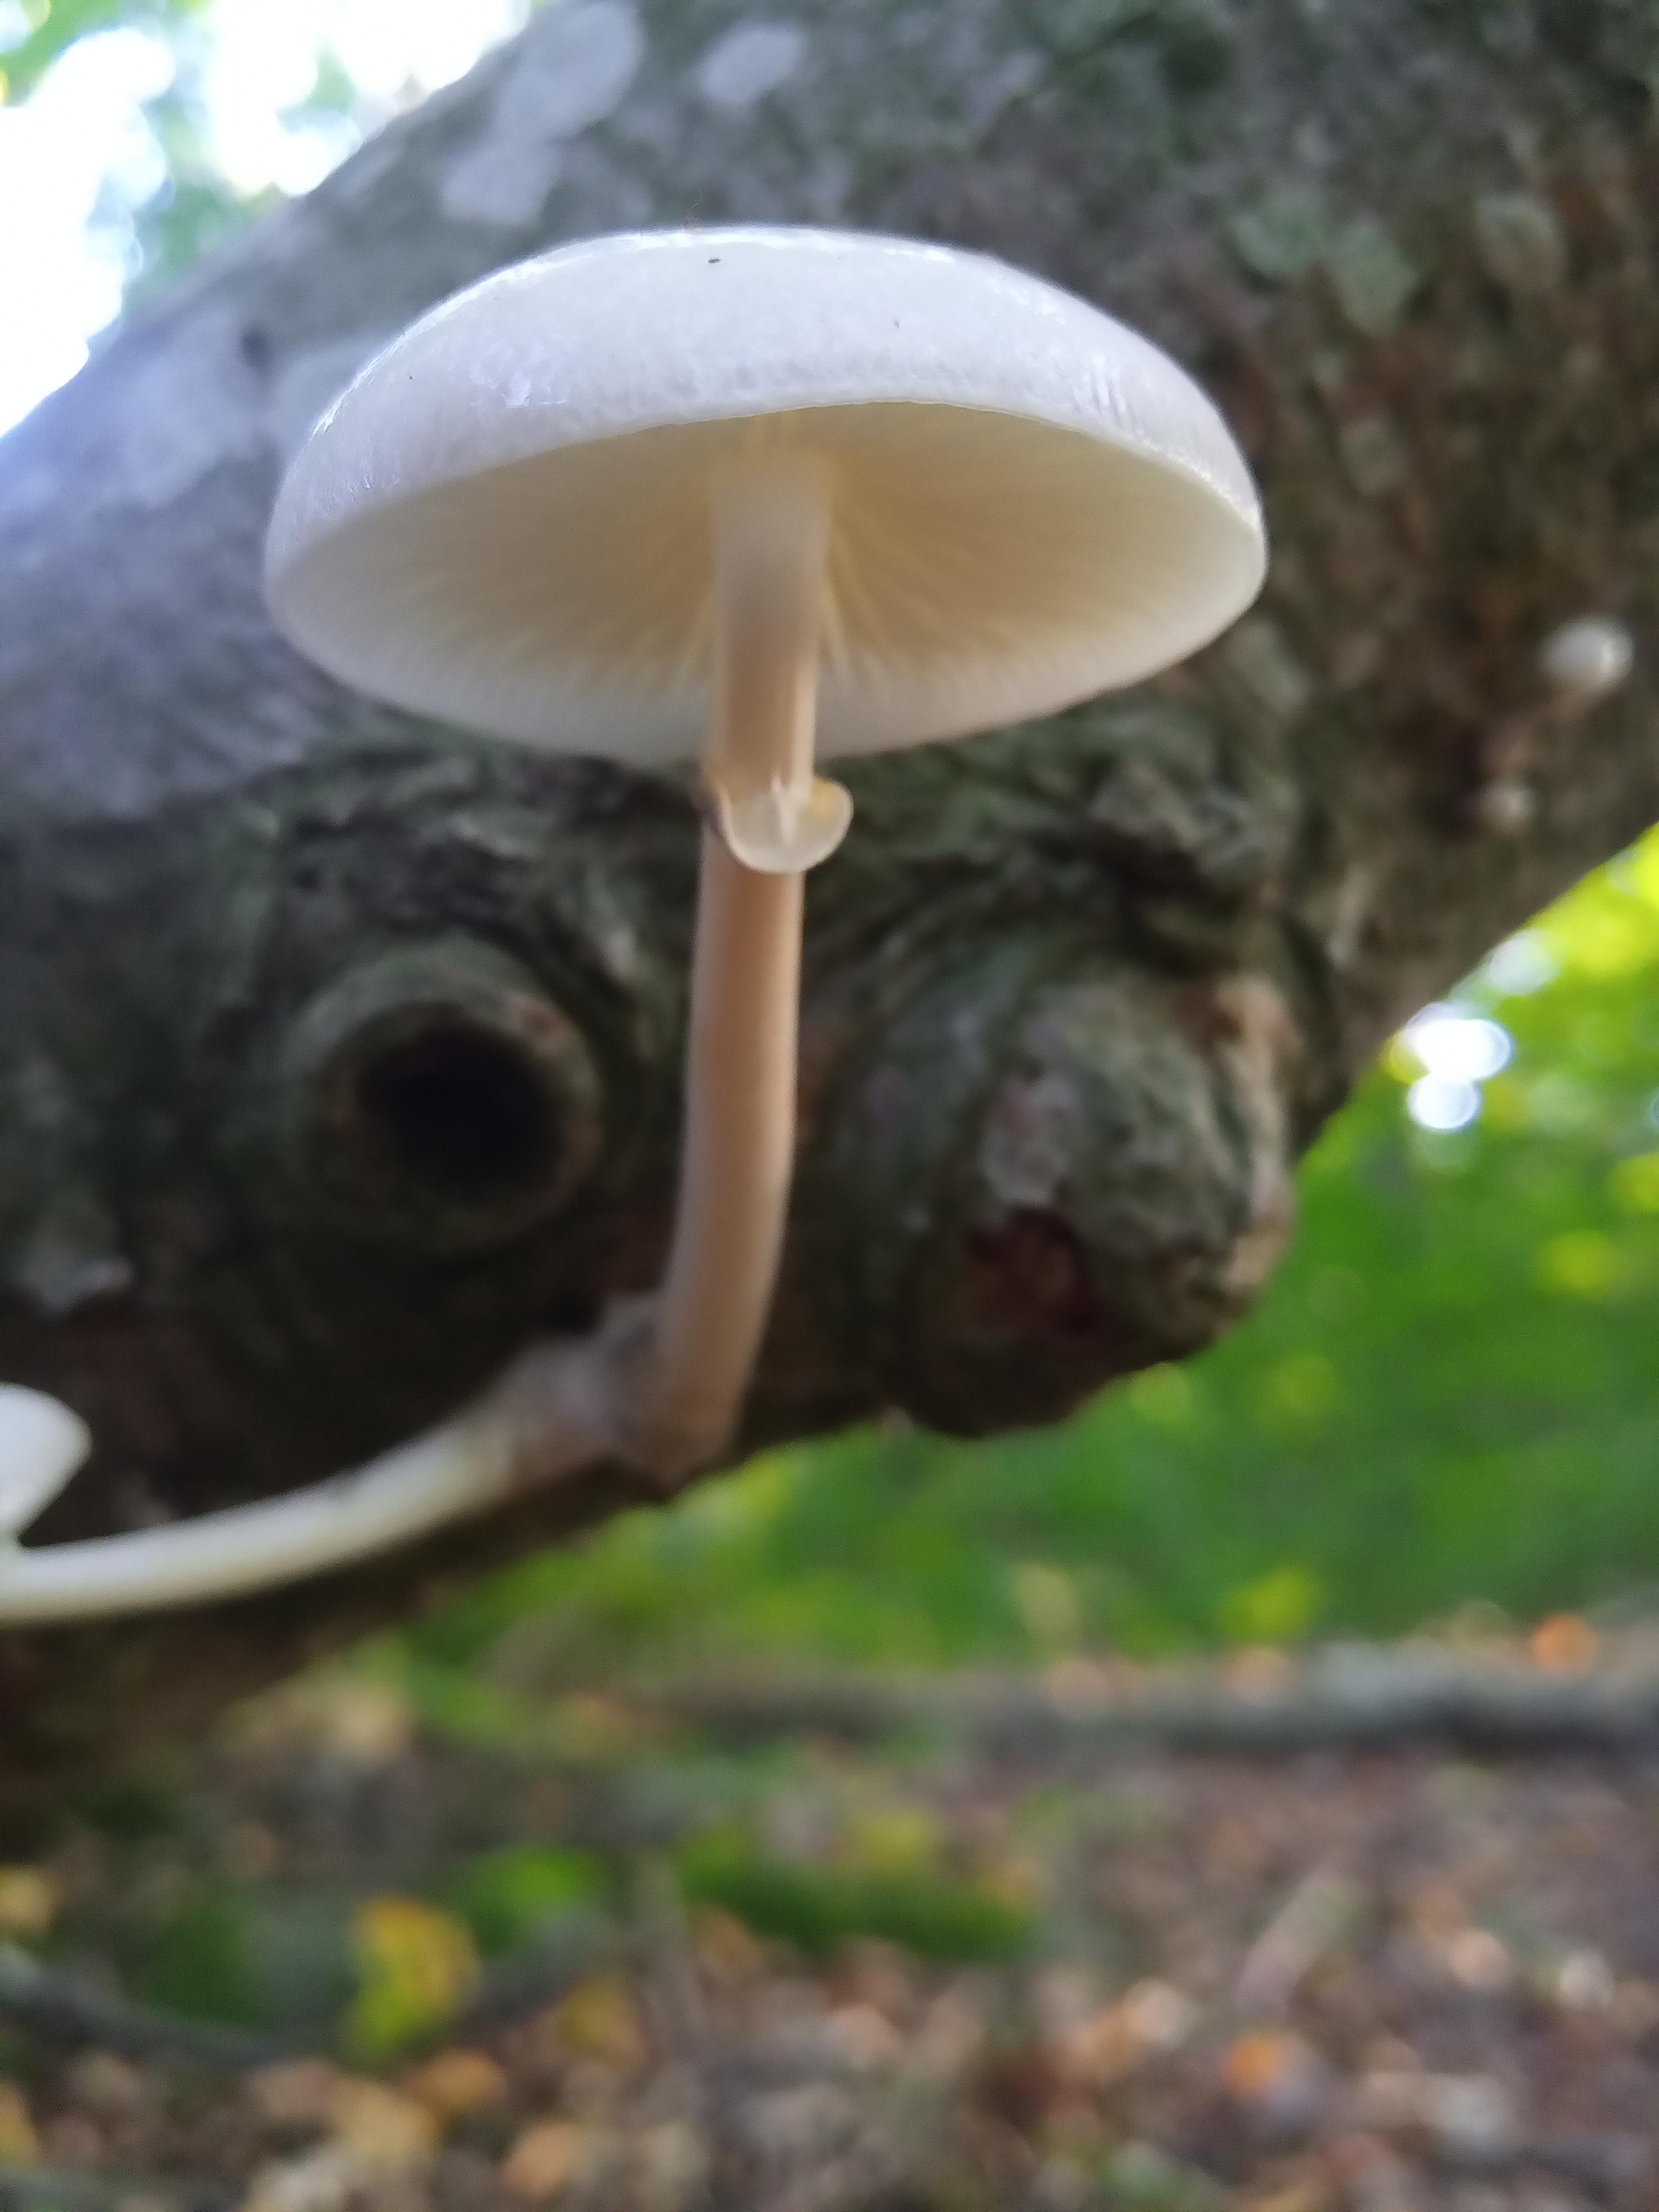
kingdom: Fungi
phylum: Basidiomycota
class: Agaricomycetes
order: Agaricales
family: Physalacriaceae
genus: Mucidula
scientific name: Mucidula mucida
